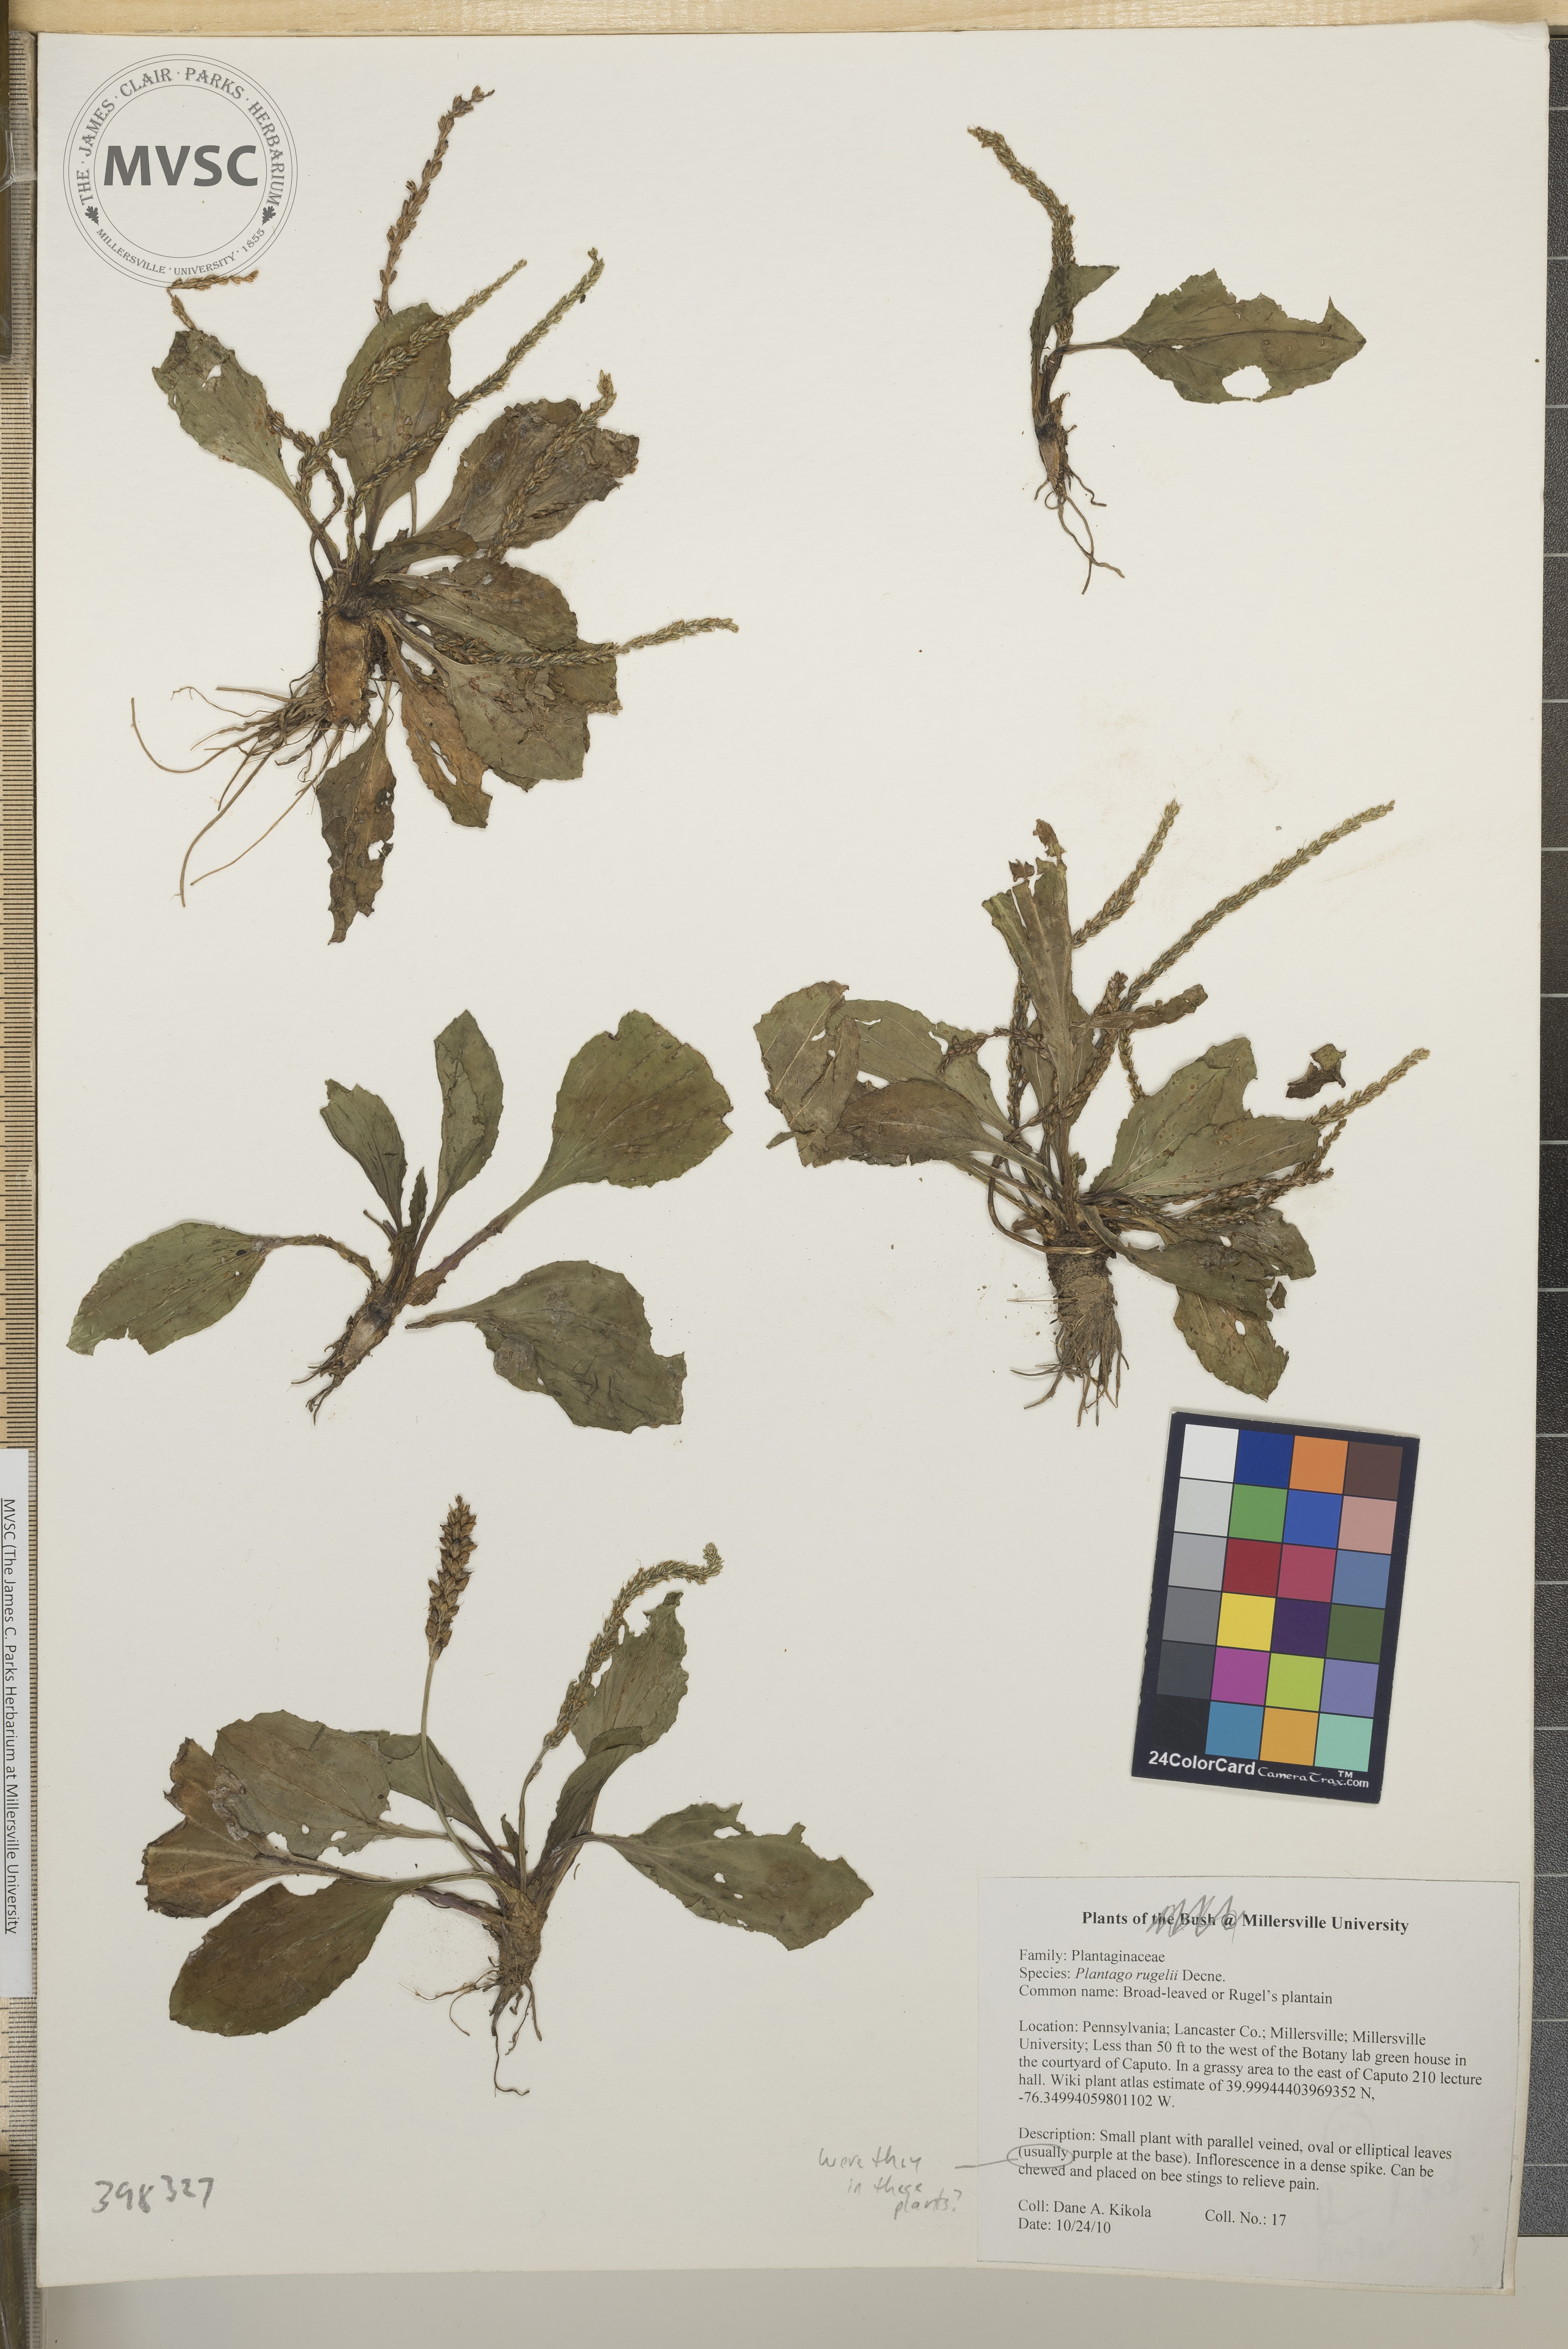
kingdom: Plantae
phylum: Tracheophyta
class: Magnoliopsida
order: Lamiales
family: Plantaginaceae
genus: Plantago
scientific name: Plantago rugelii
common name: Rugel's plantain
